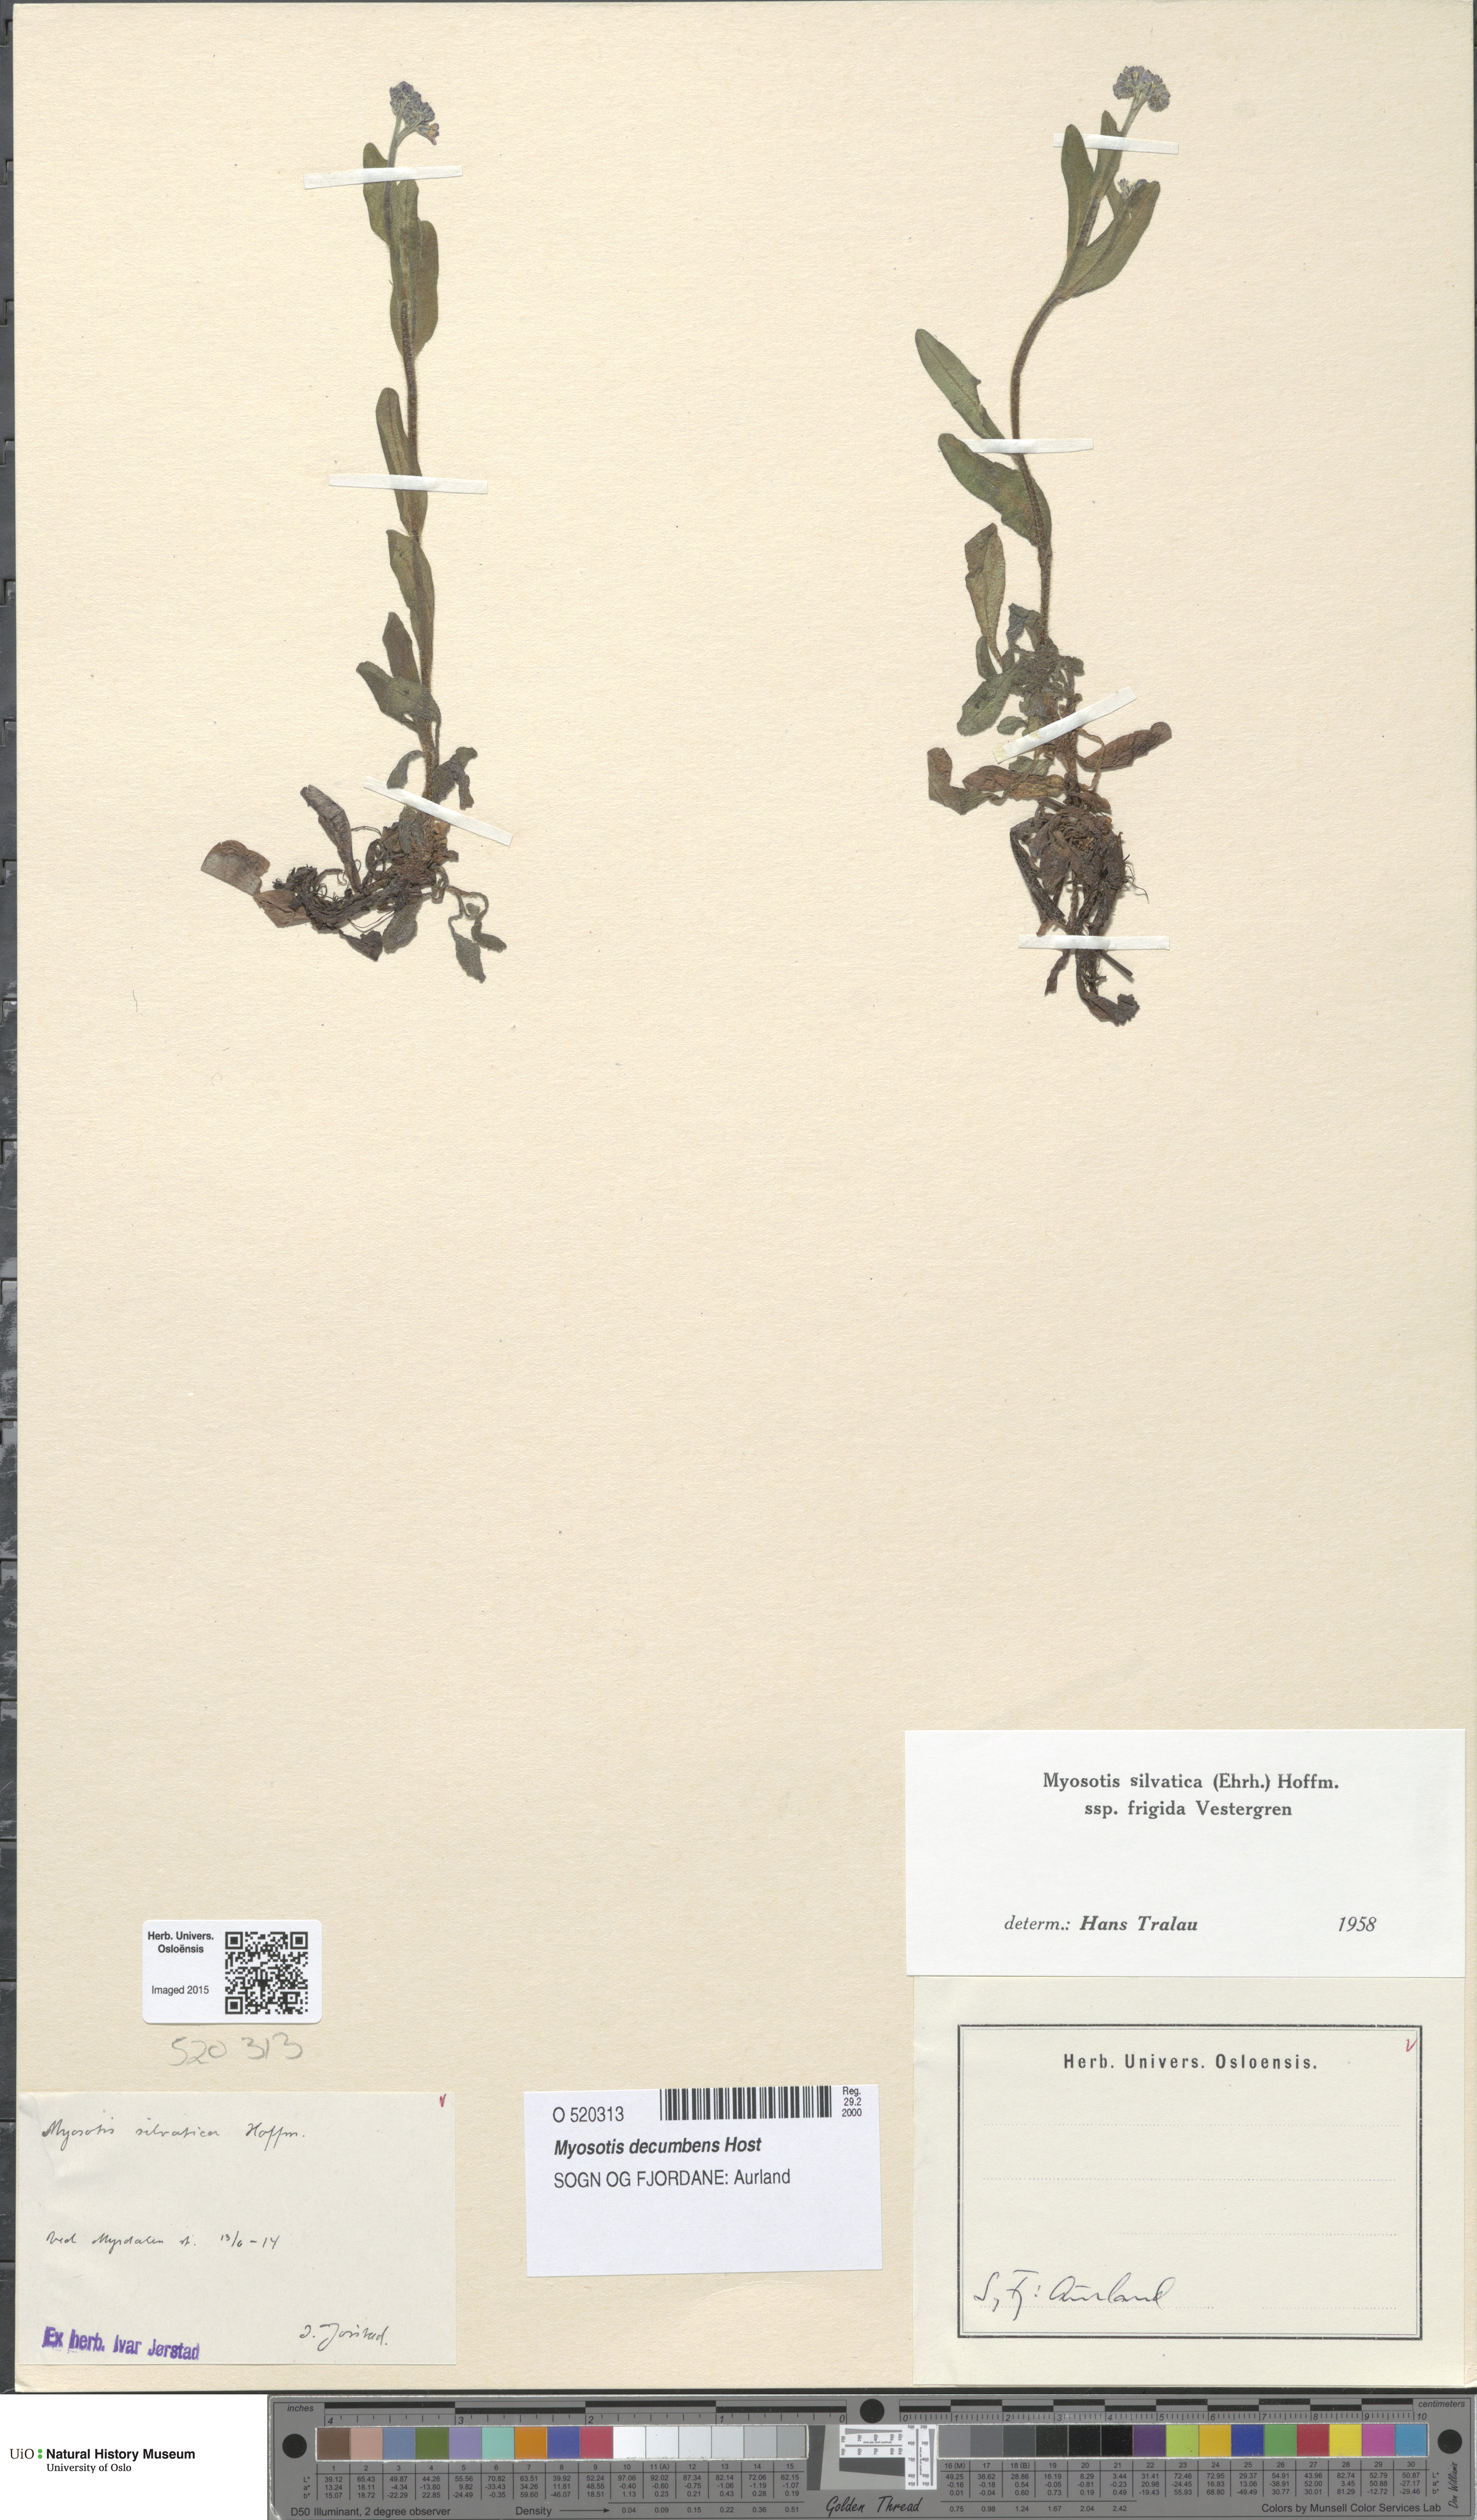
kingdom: Plantae
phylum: Tracheophyta
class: Magnoliopsida
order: Boraginales
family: Boraginaceae
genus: Myosotis
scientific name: Myosotis decumbens
